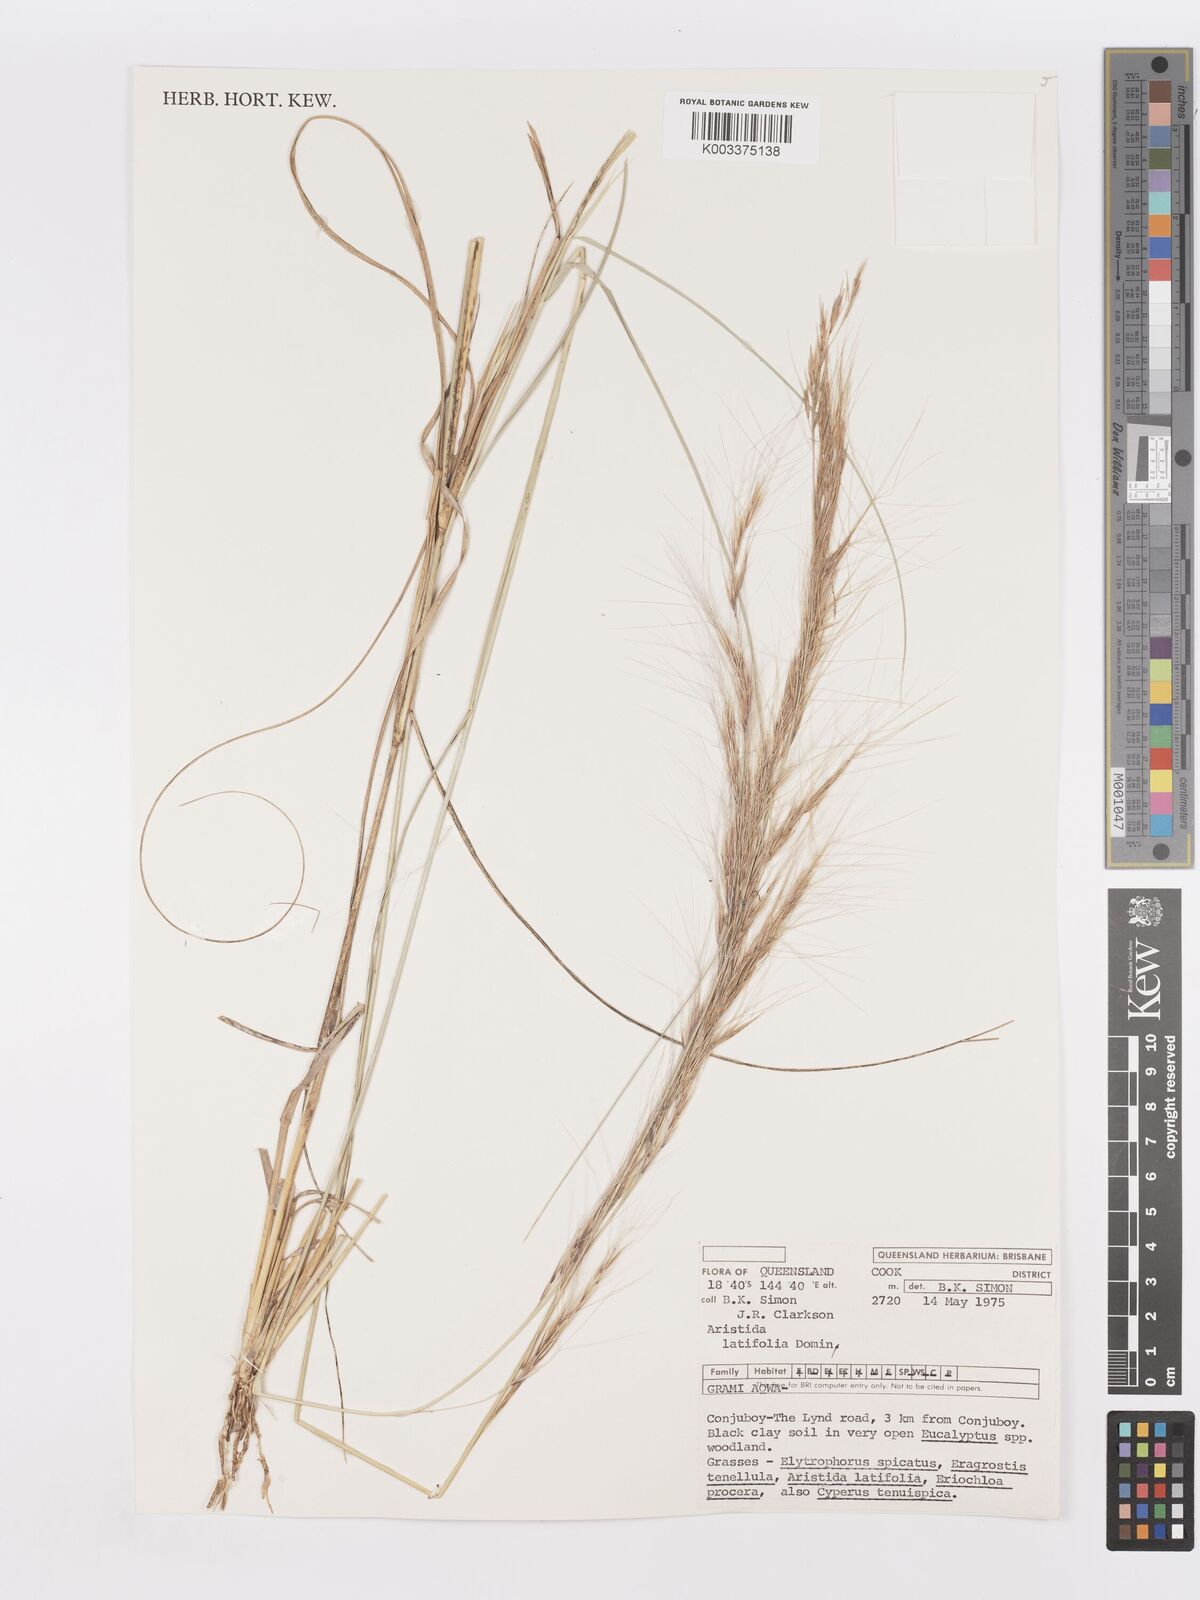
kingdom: Plantae
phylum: Tracheophyta
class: Liliopsida
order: Poales
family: Poaceae
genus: Aristida
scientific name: Aristida latifolia
